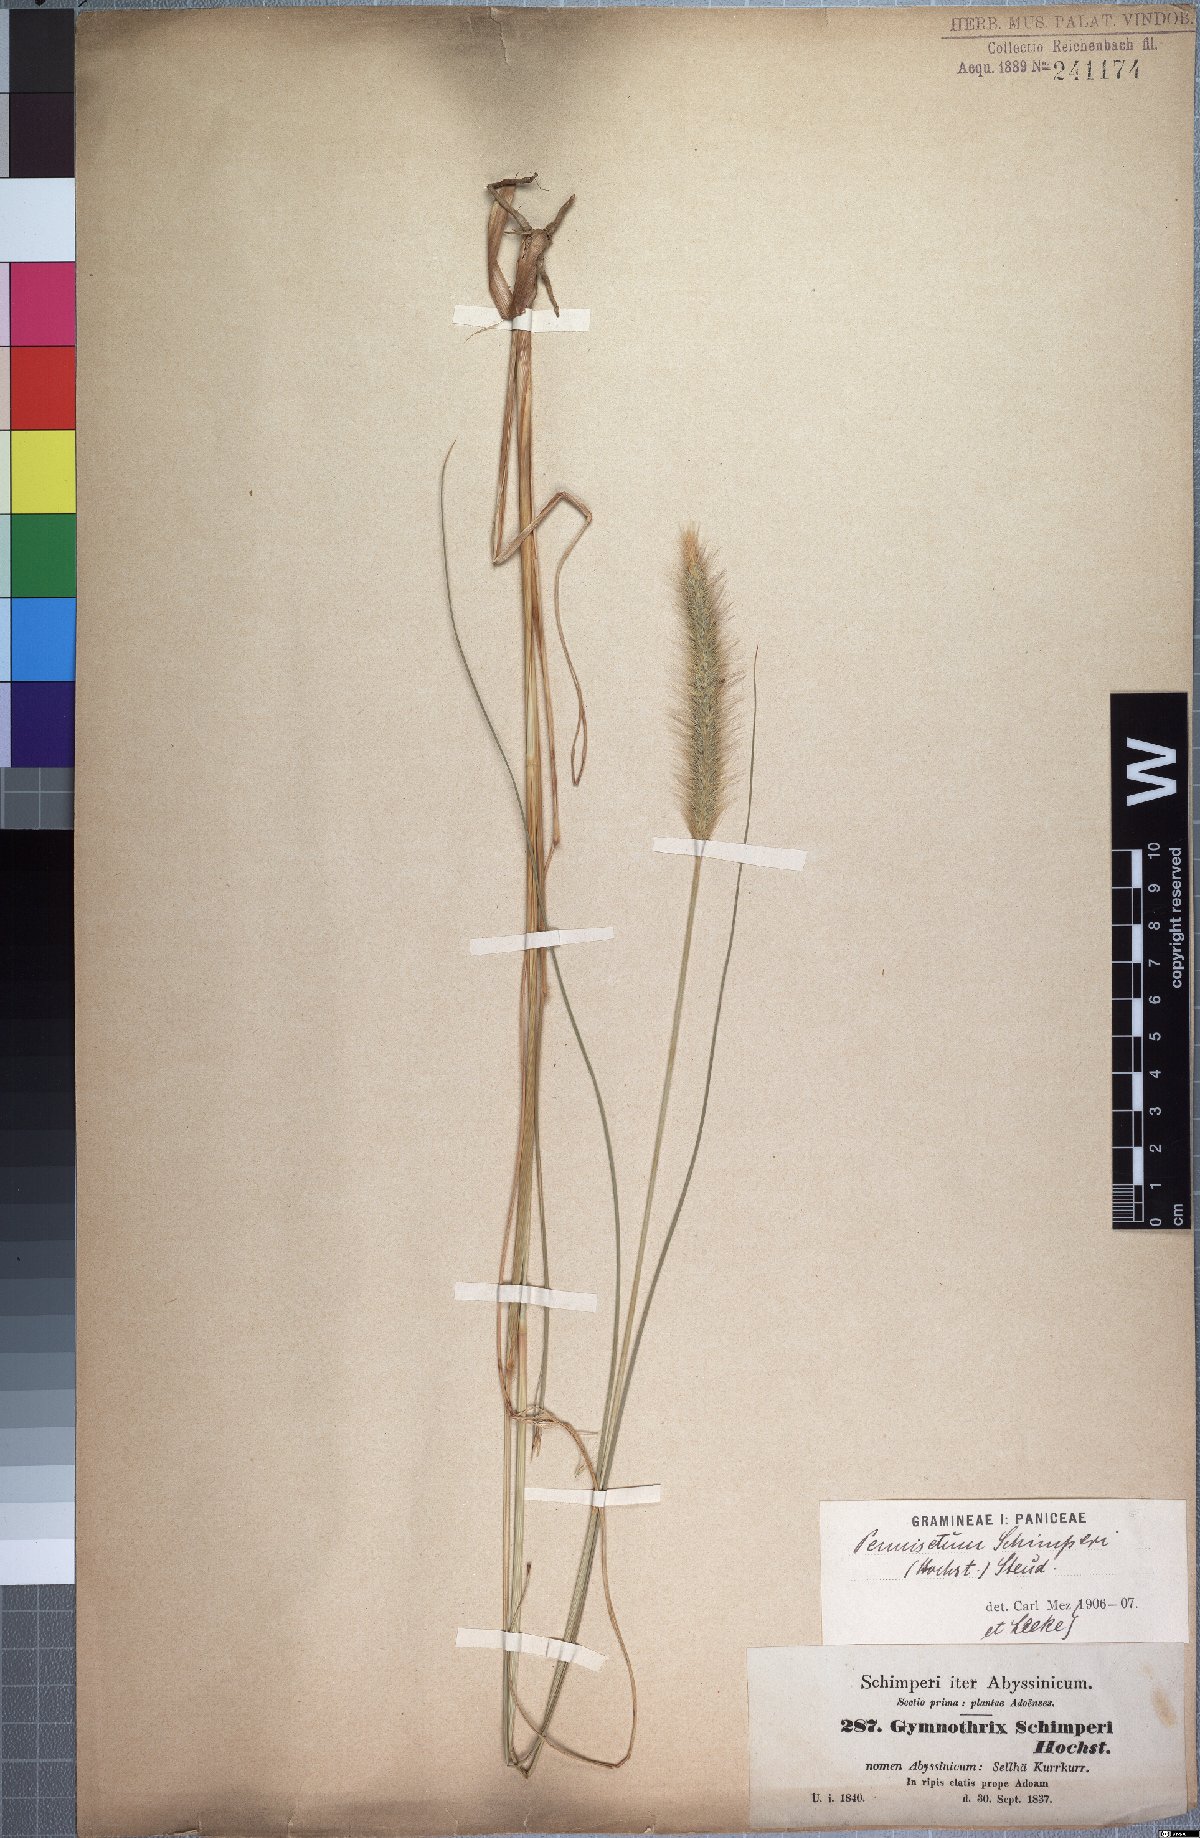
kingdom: Plantae
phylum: Tracheophyta
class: Liliopsida
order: Poales
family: Poaceae
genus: Cenchrus
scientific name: Cenchrus sphacelatus
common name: Bulgras
